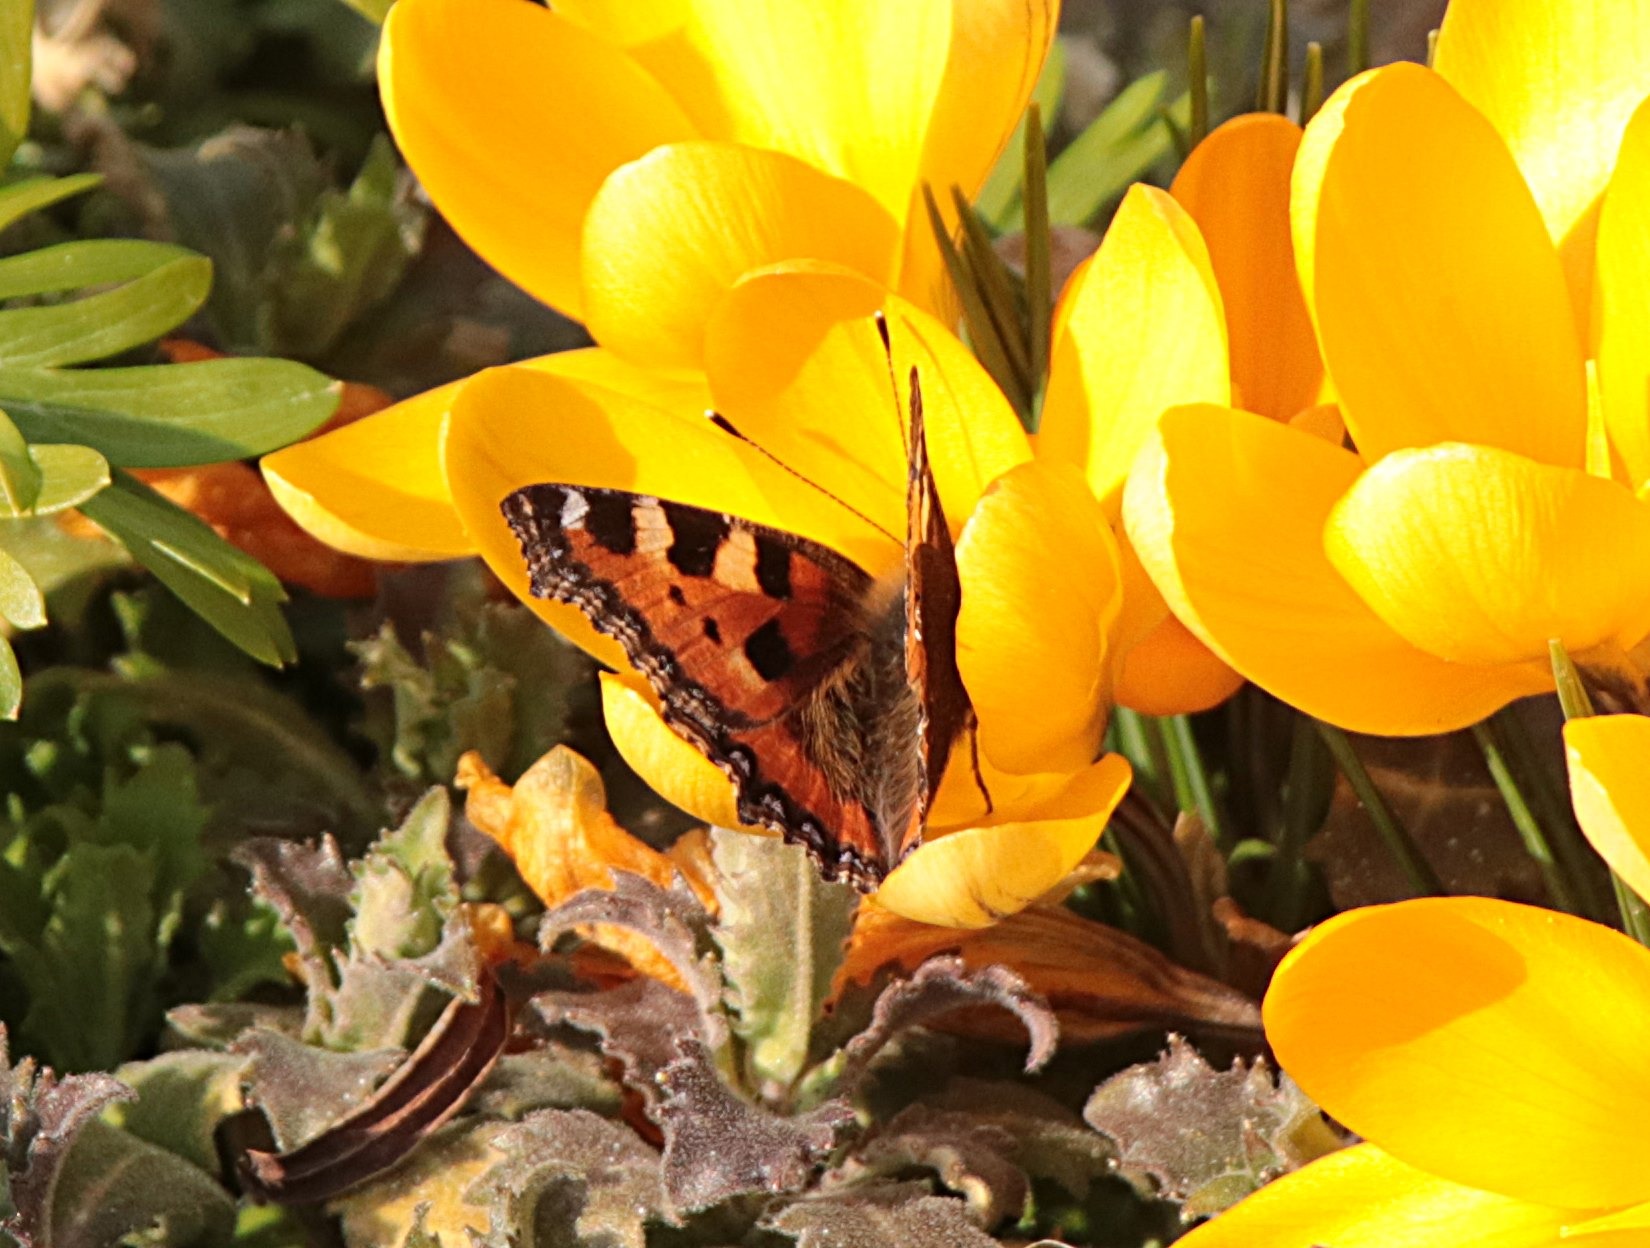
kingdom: Animalia
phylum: Arthropoda
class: Insecta
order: Lepidoptera
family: Nymphalidae
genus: Aglais
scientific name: Aglais urticae
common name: Nældens takvinge
